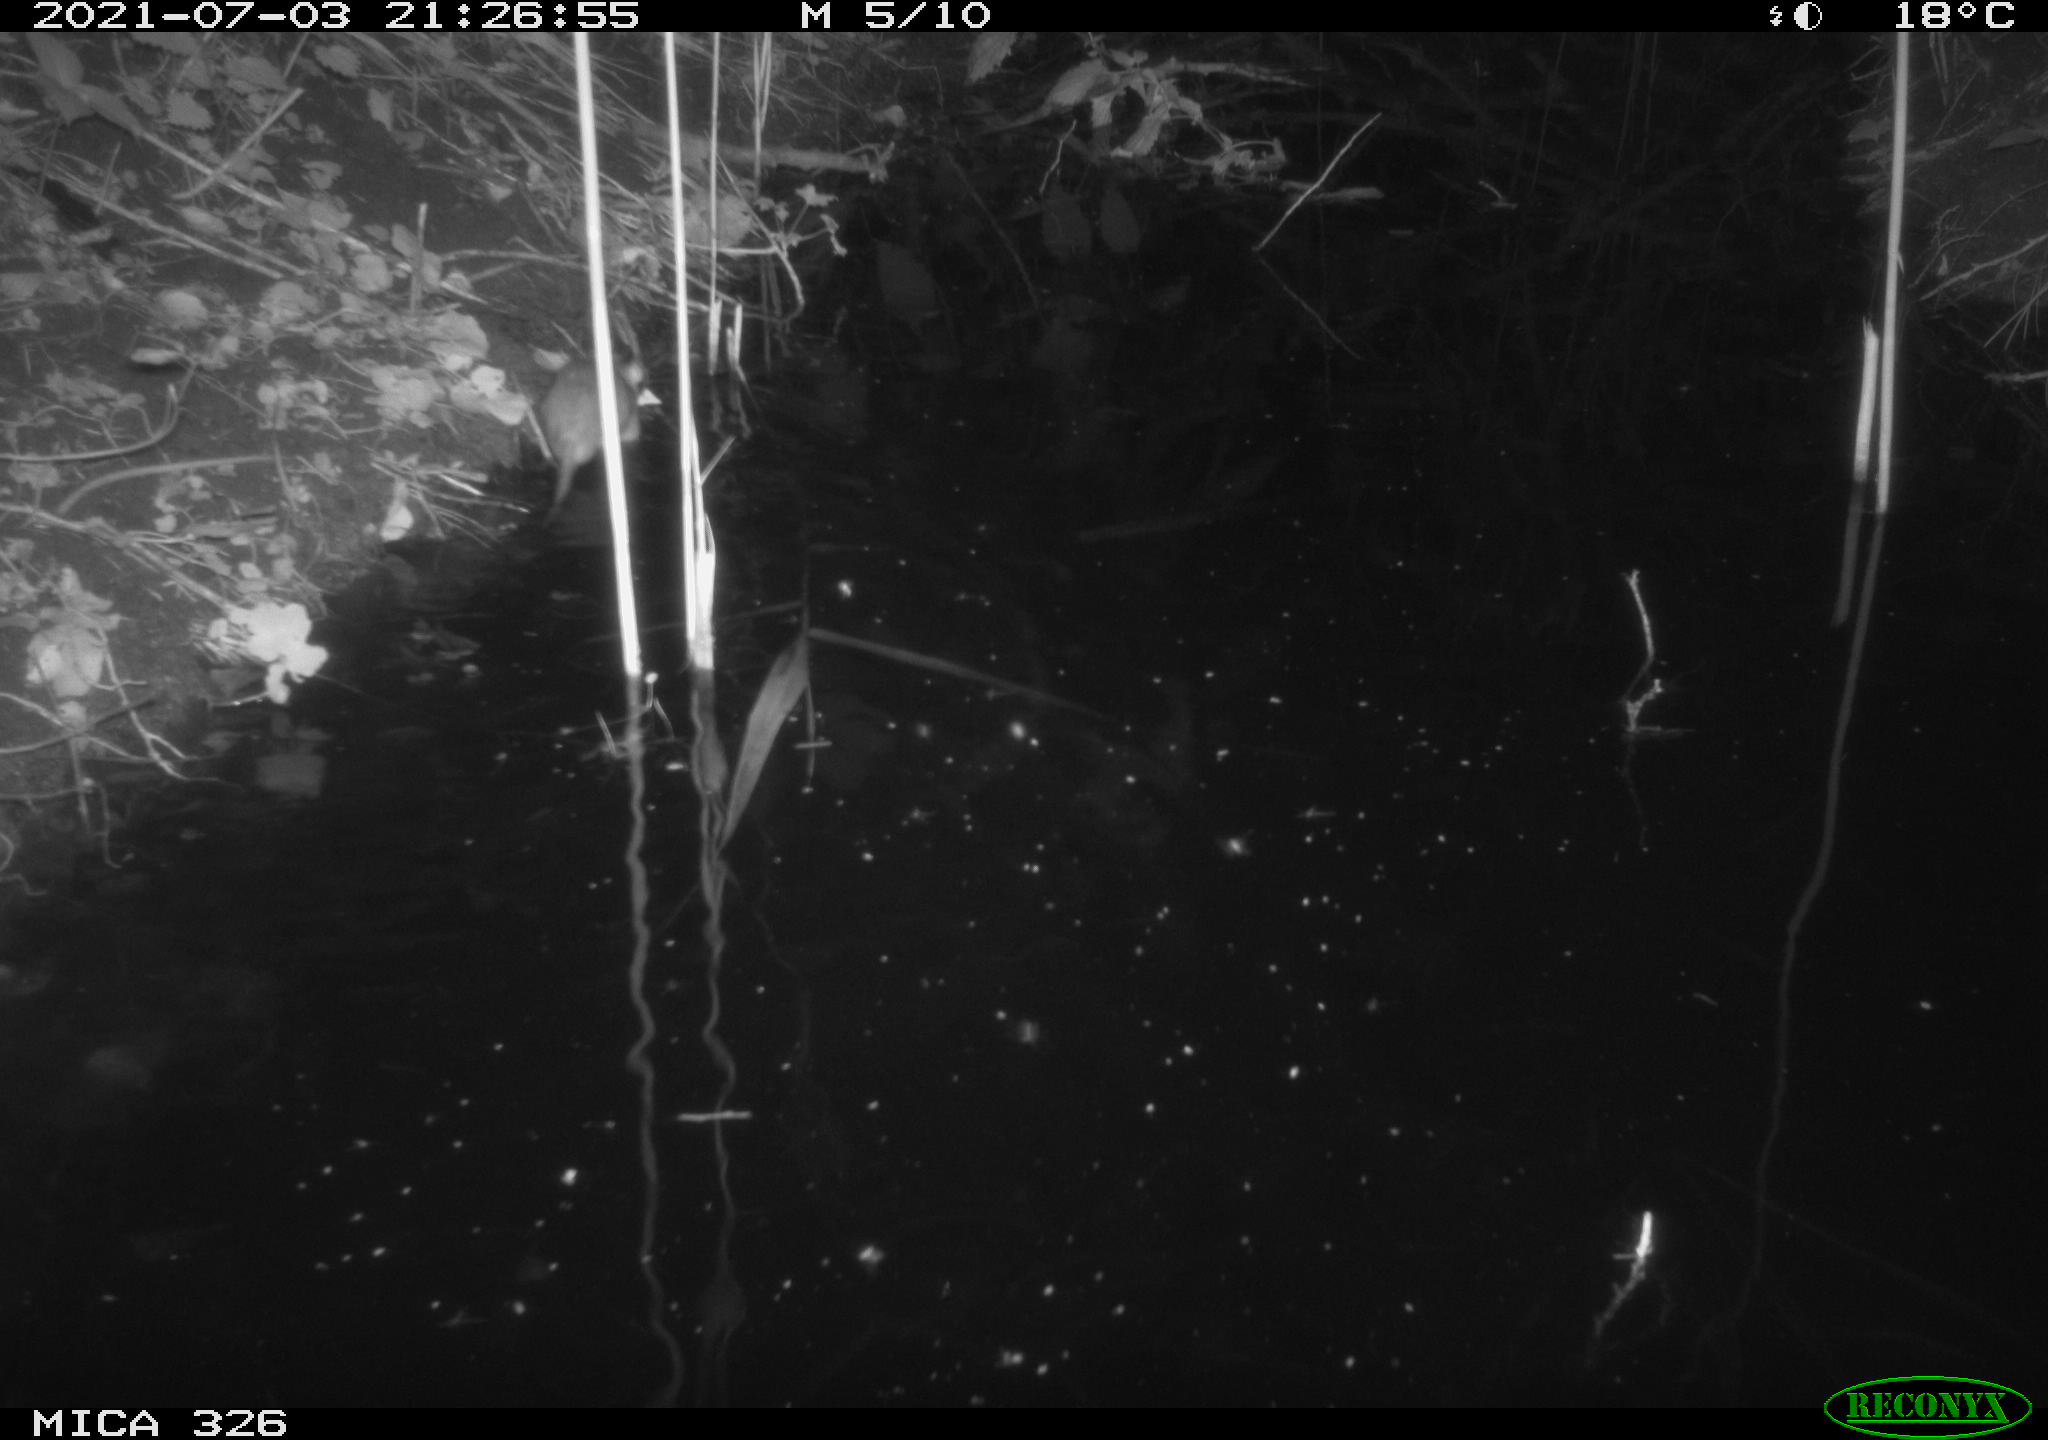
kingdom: Animalia
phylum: Chordata
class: Mammalia
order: Rodentia
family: Muridae
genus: Rattus
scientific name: Rattus norvegicus
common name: Brown rat
